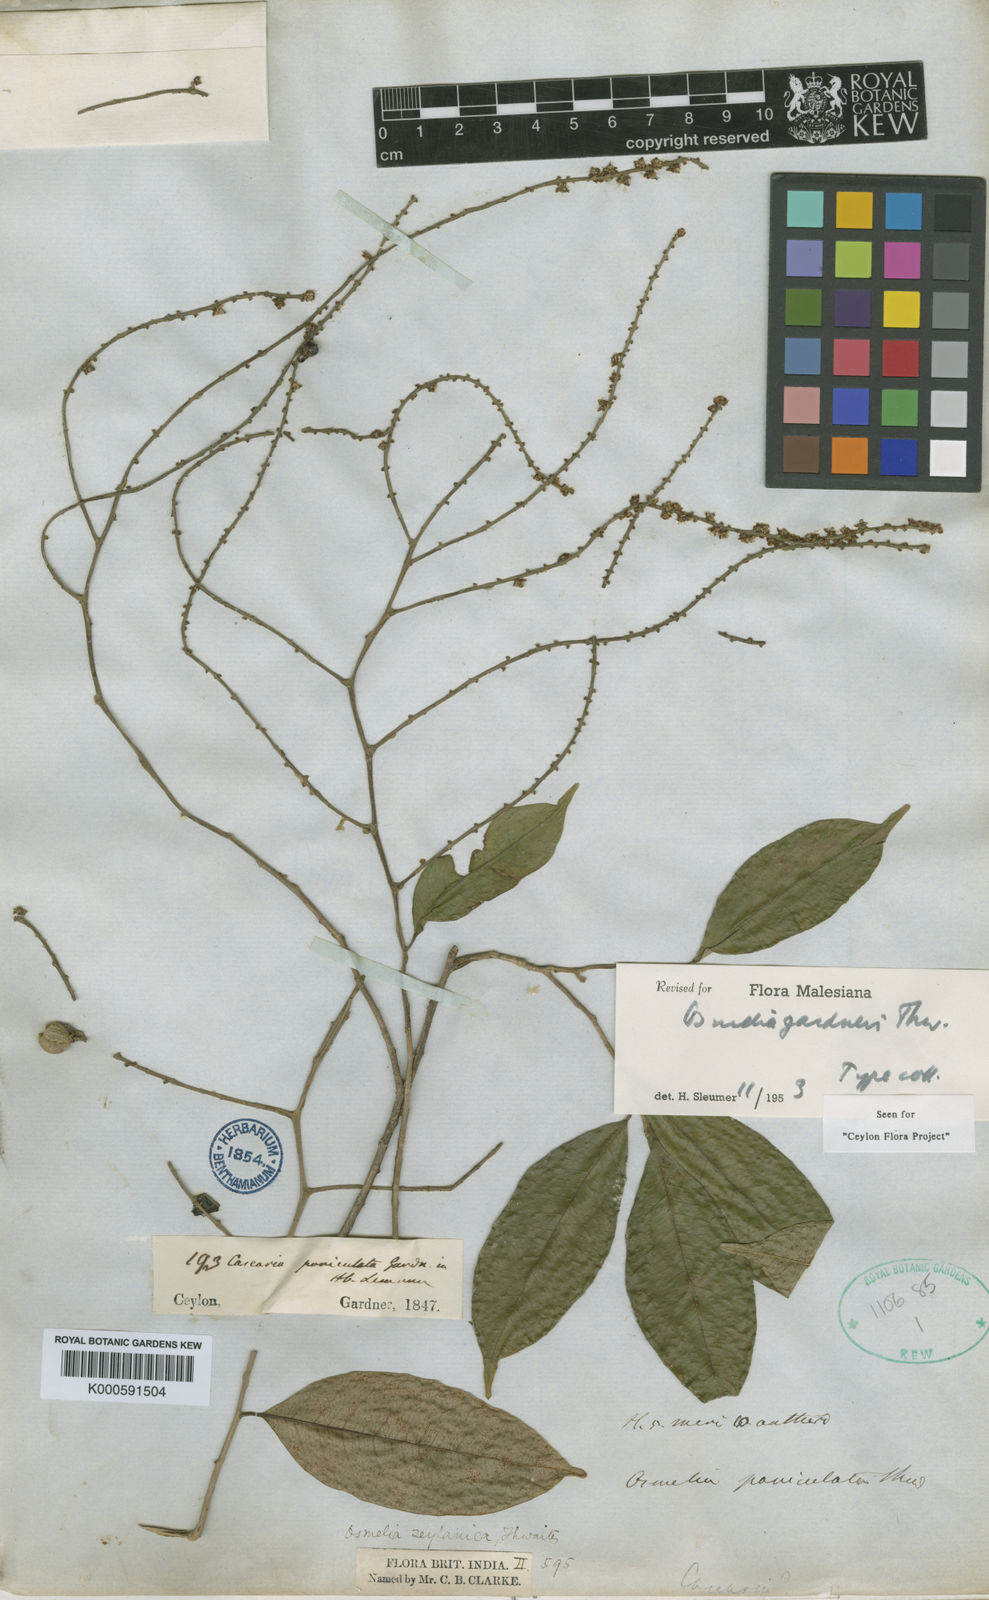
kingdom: Plantae
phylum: Tracheophyta
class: Magnoliopsida
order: Malpighiales
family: Salicaceae
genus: Osmelia
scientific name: Osmelia gardneri
